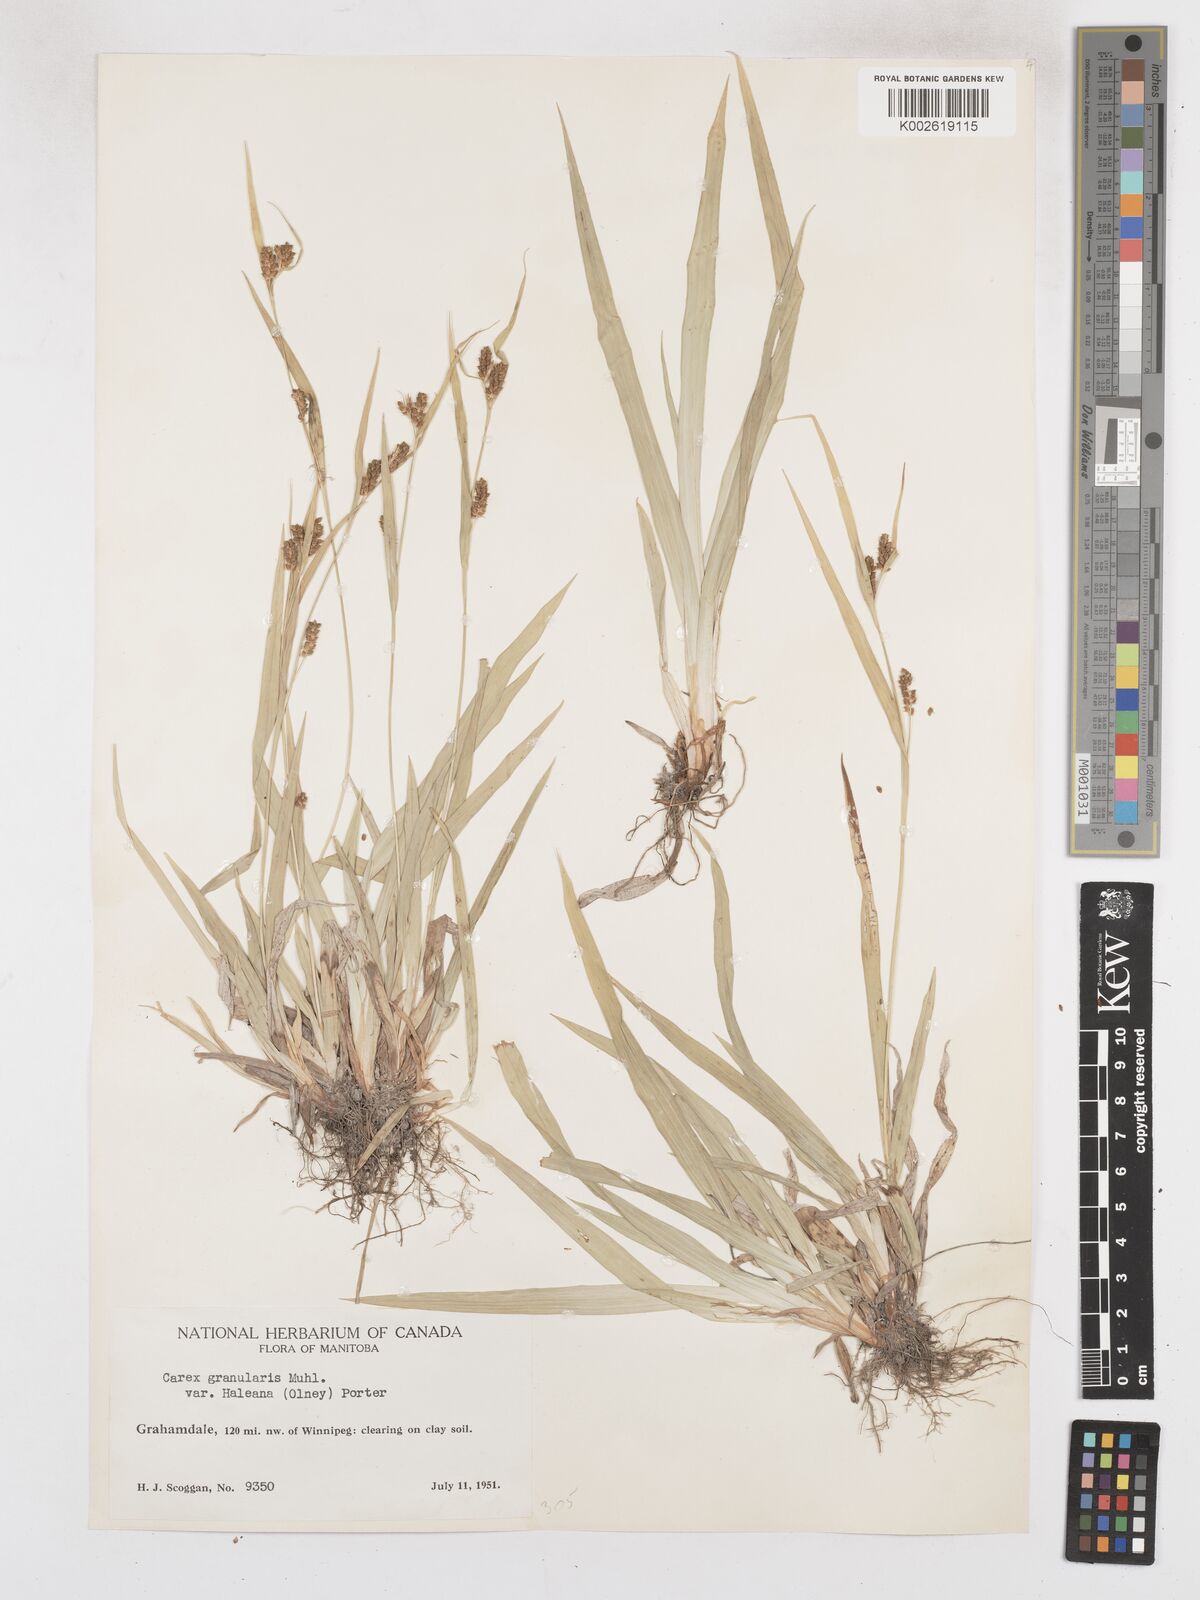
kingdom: Plantae
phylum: Tracheophyta
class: Liliopsida
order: Poales
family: Cyperaceae
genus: Carex
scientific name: Carex granularis
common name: Granular sedge
